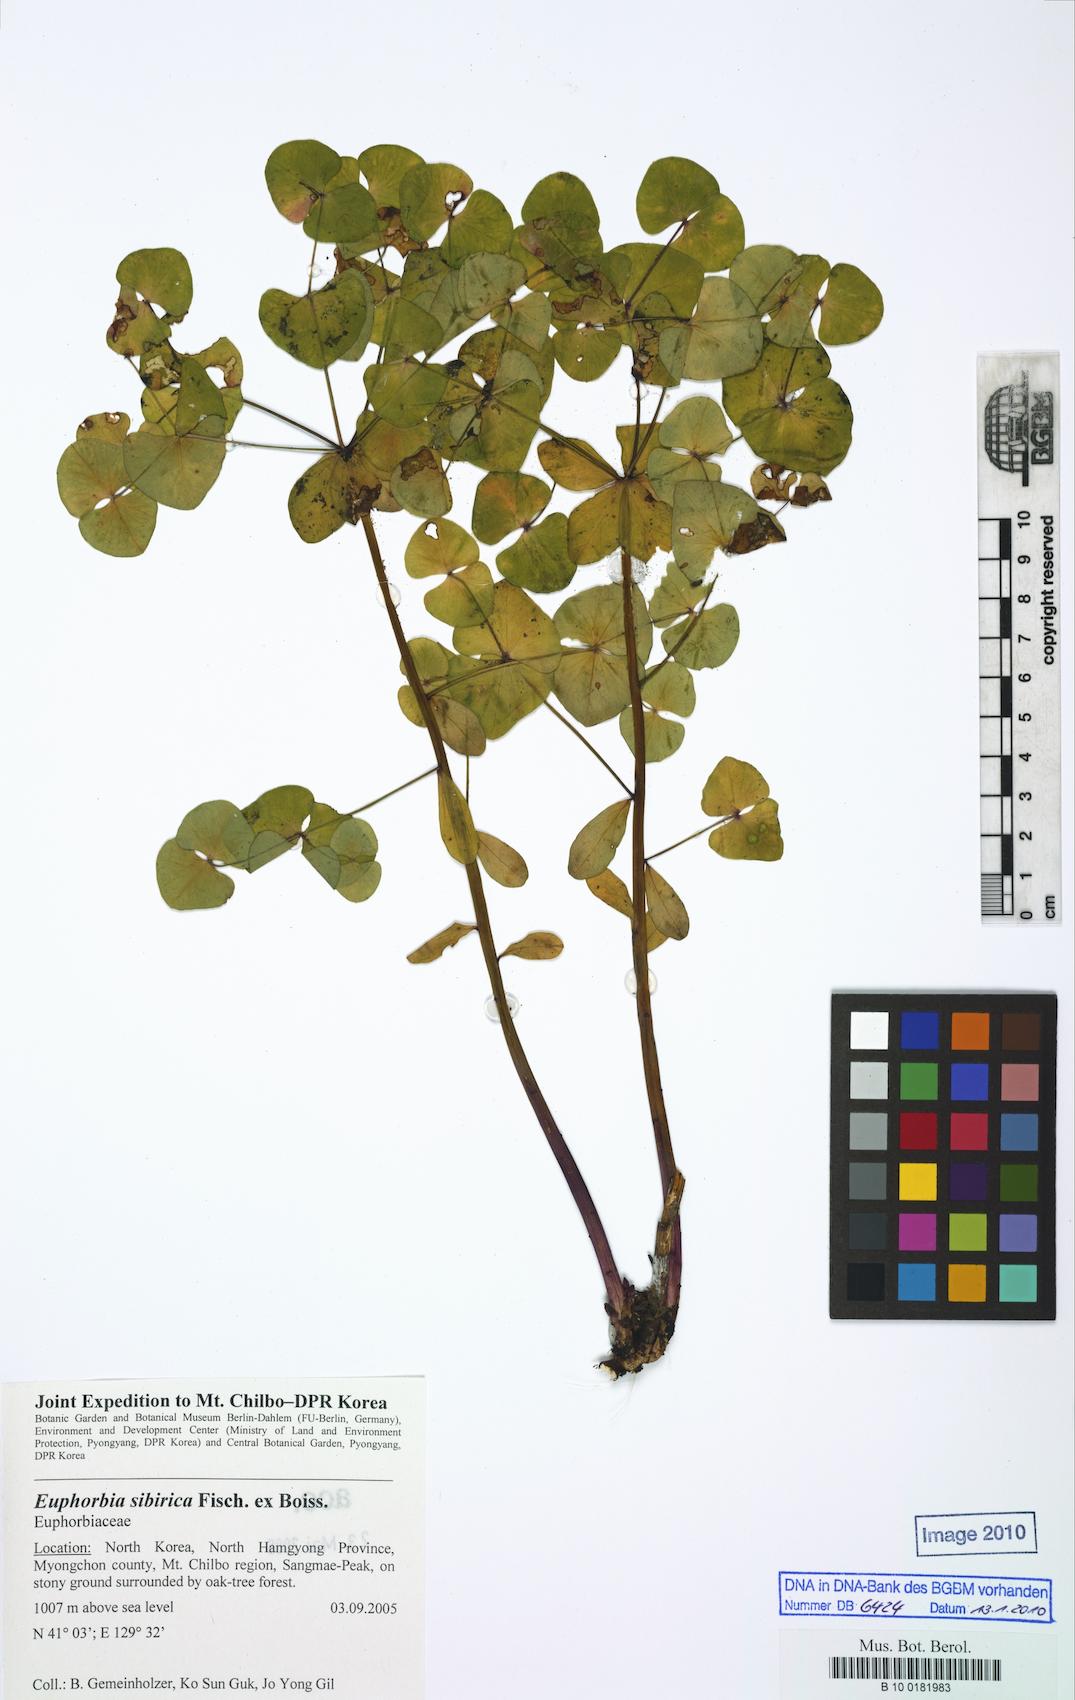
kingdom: Plantae
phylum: Tracheophyta
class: Magnoliopsida
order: Malpighiales
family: Euphorbiaceae
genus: Euphorbia
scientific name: Euphorbia alpina
